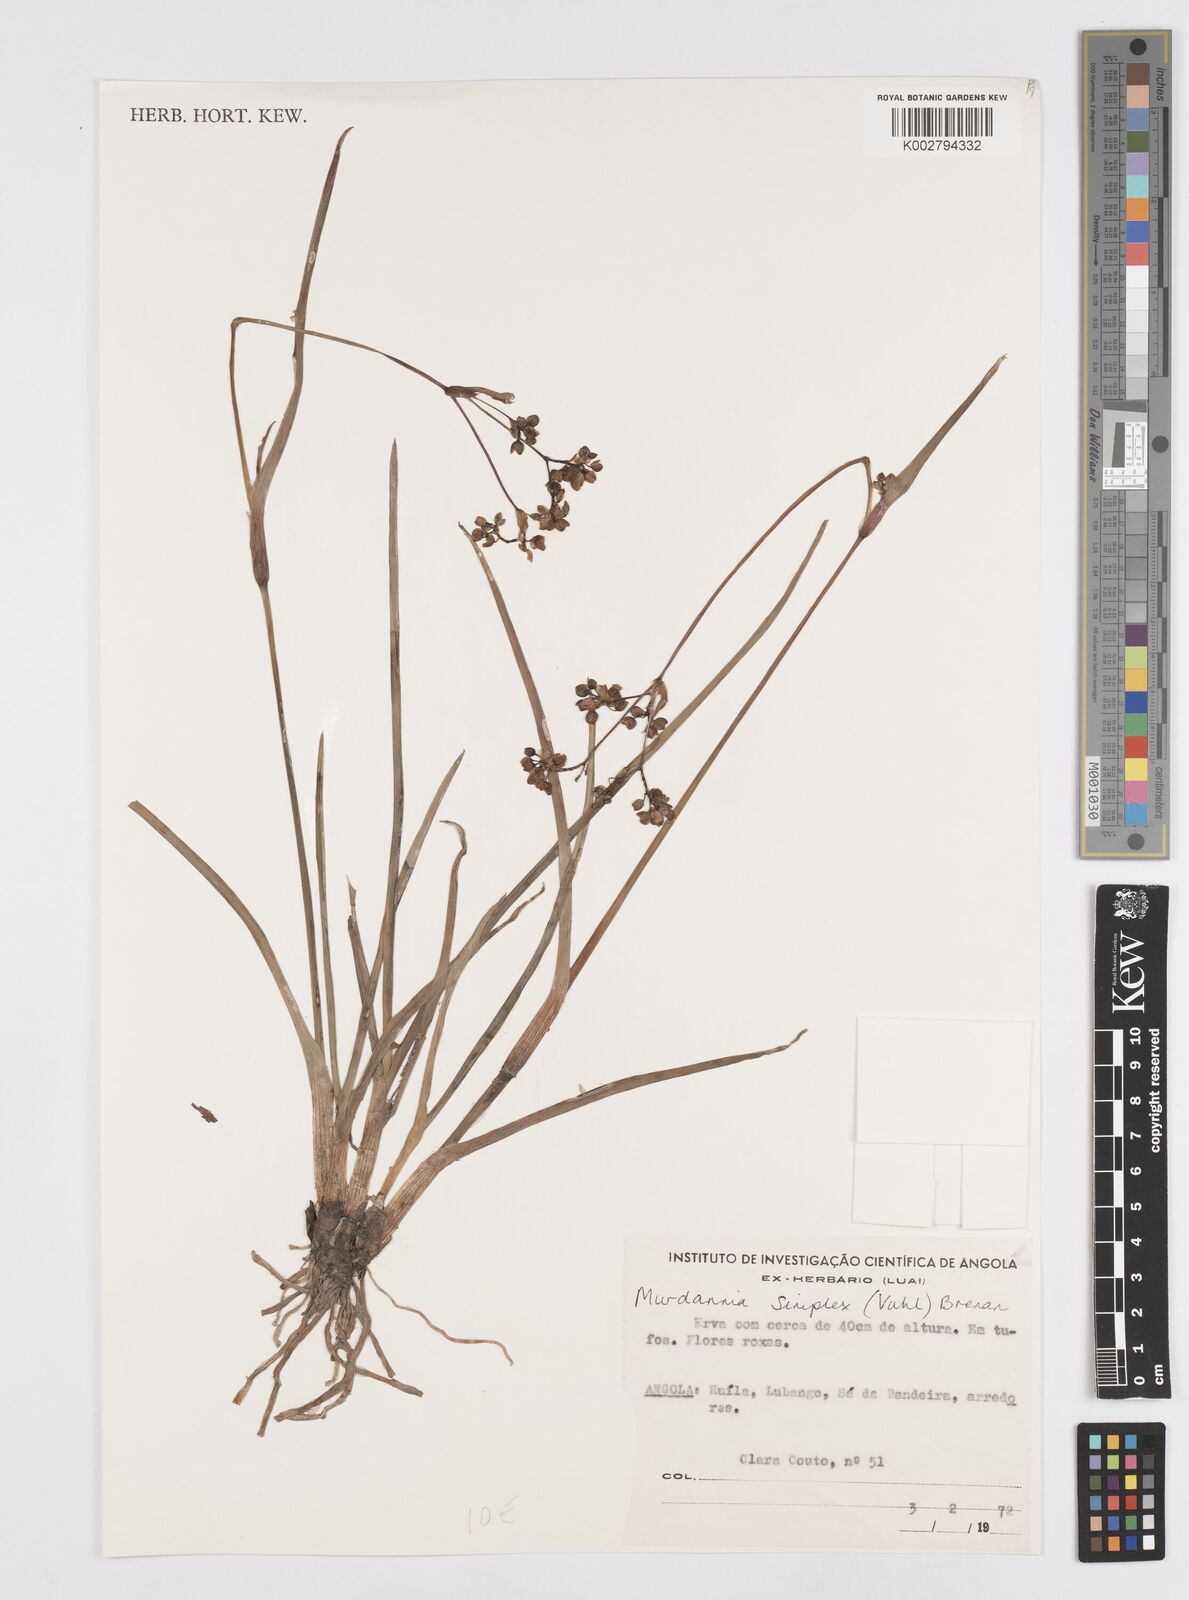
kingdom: Plantae
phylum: Tracheophyta
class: Liliopsida
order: Commelinales
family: Commelinaceae
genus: Murdannia
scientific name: Murdannia simplex
